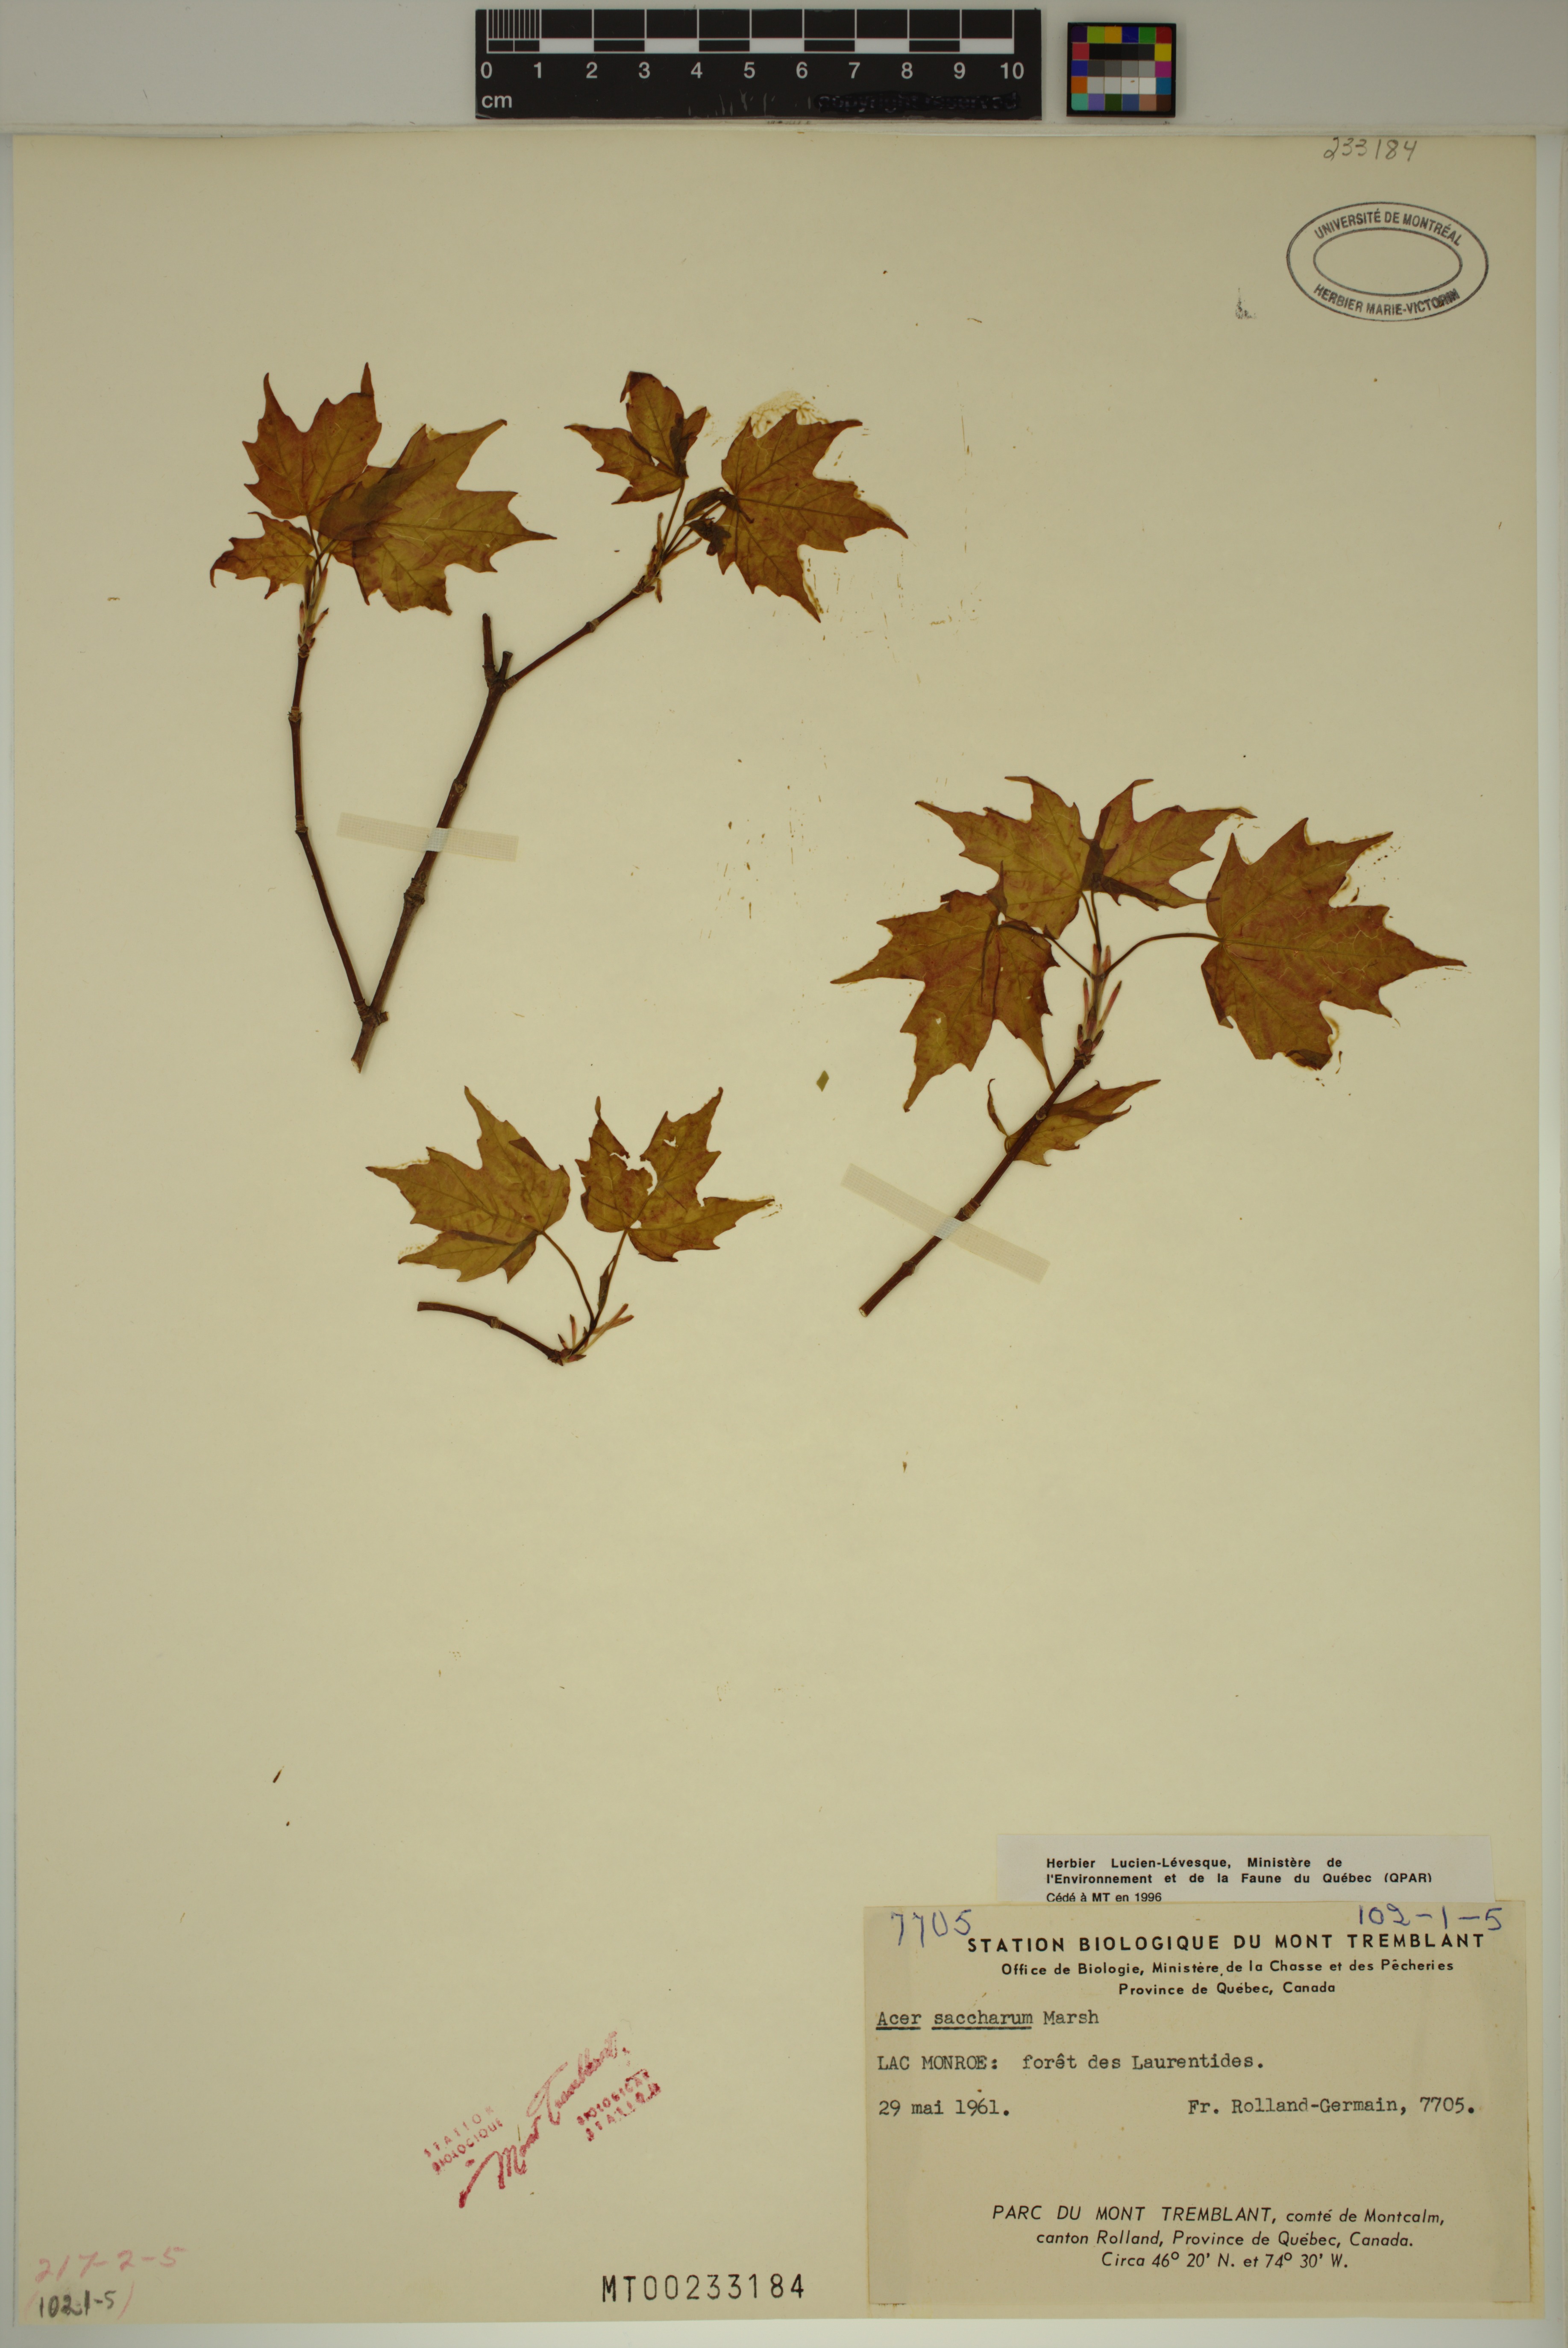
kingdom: Plantae
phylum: Tracheophyta
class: Magnoliopsida
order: Sapindales
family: Sapindaceae
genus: Acer
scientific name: Acer saccharum
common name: Sugar maple
